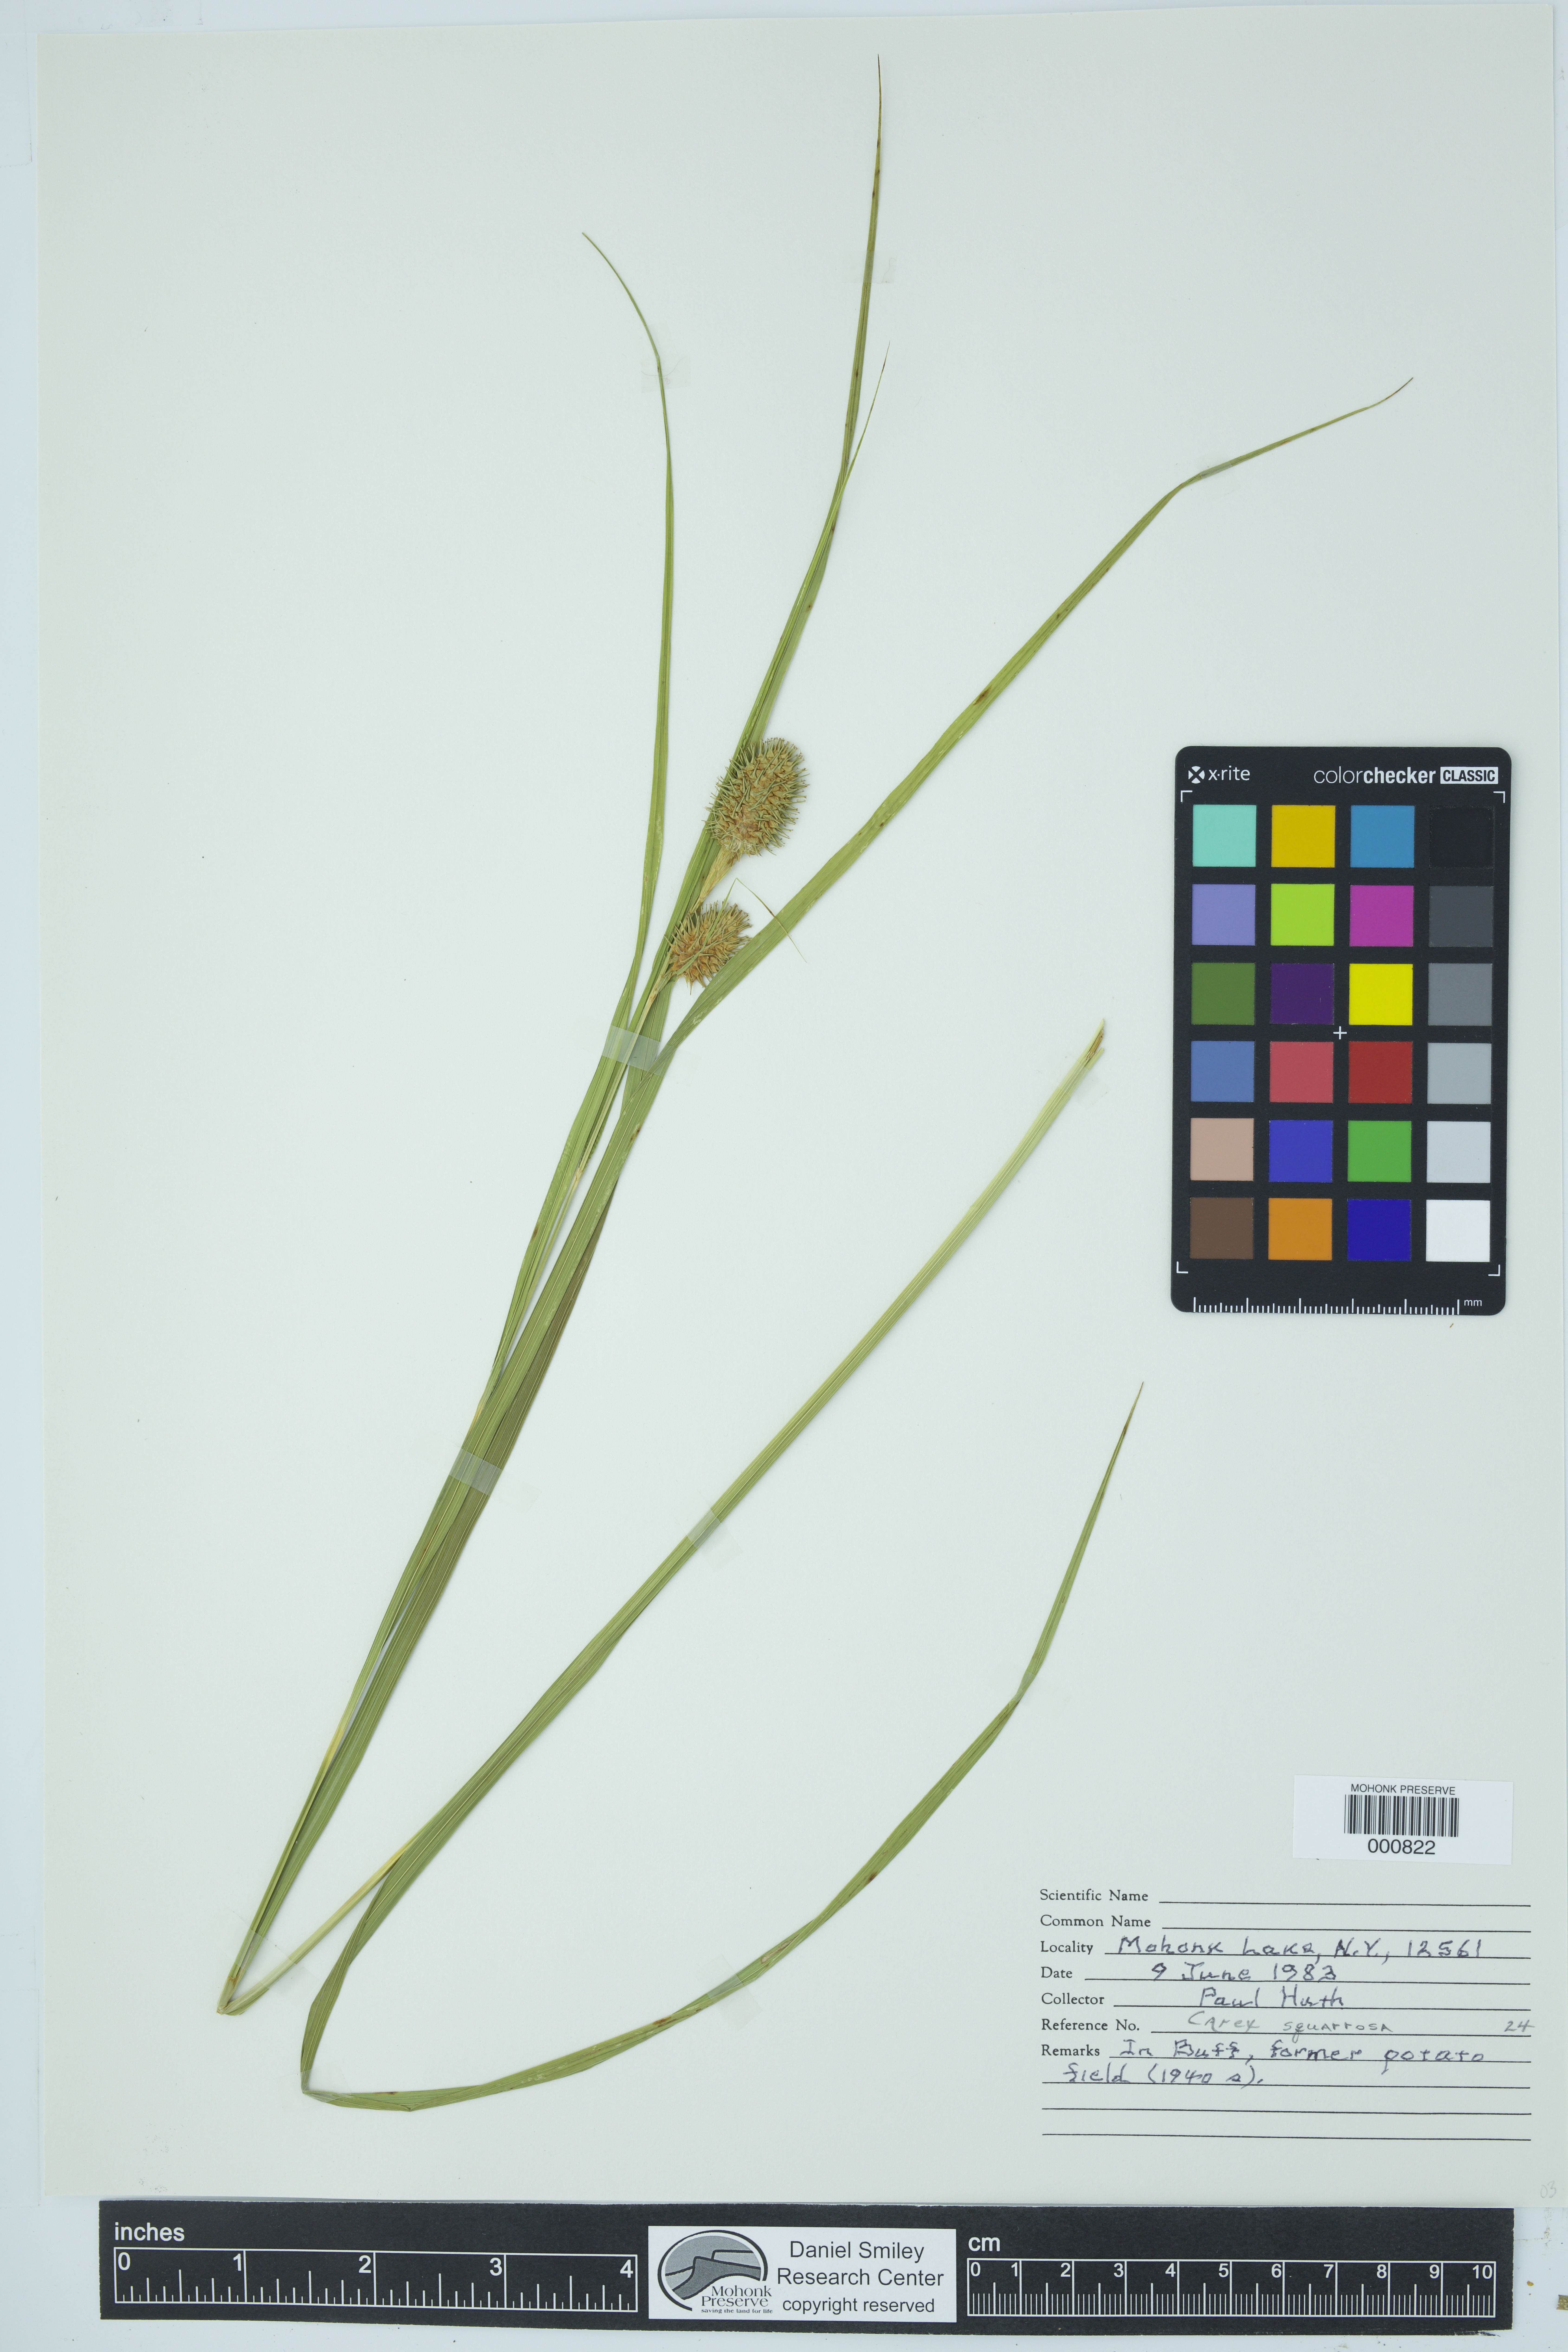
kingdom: Plantae
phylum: Tracheophyta
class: Liliopsida
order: Poales
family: Cyperaceae
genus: Carex
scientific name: Carex squarrosa
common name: Narrow-leaved cattail sedge
